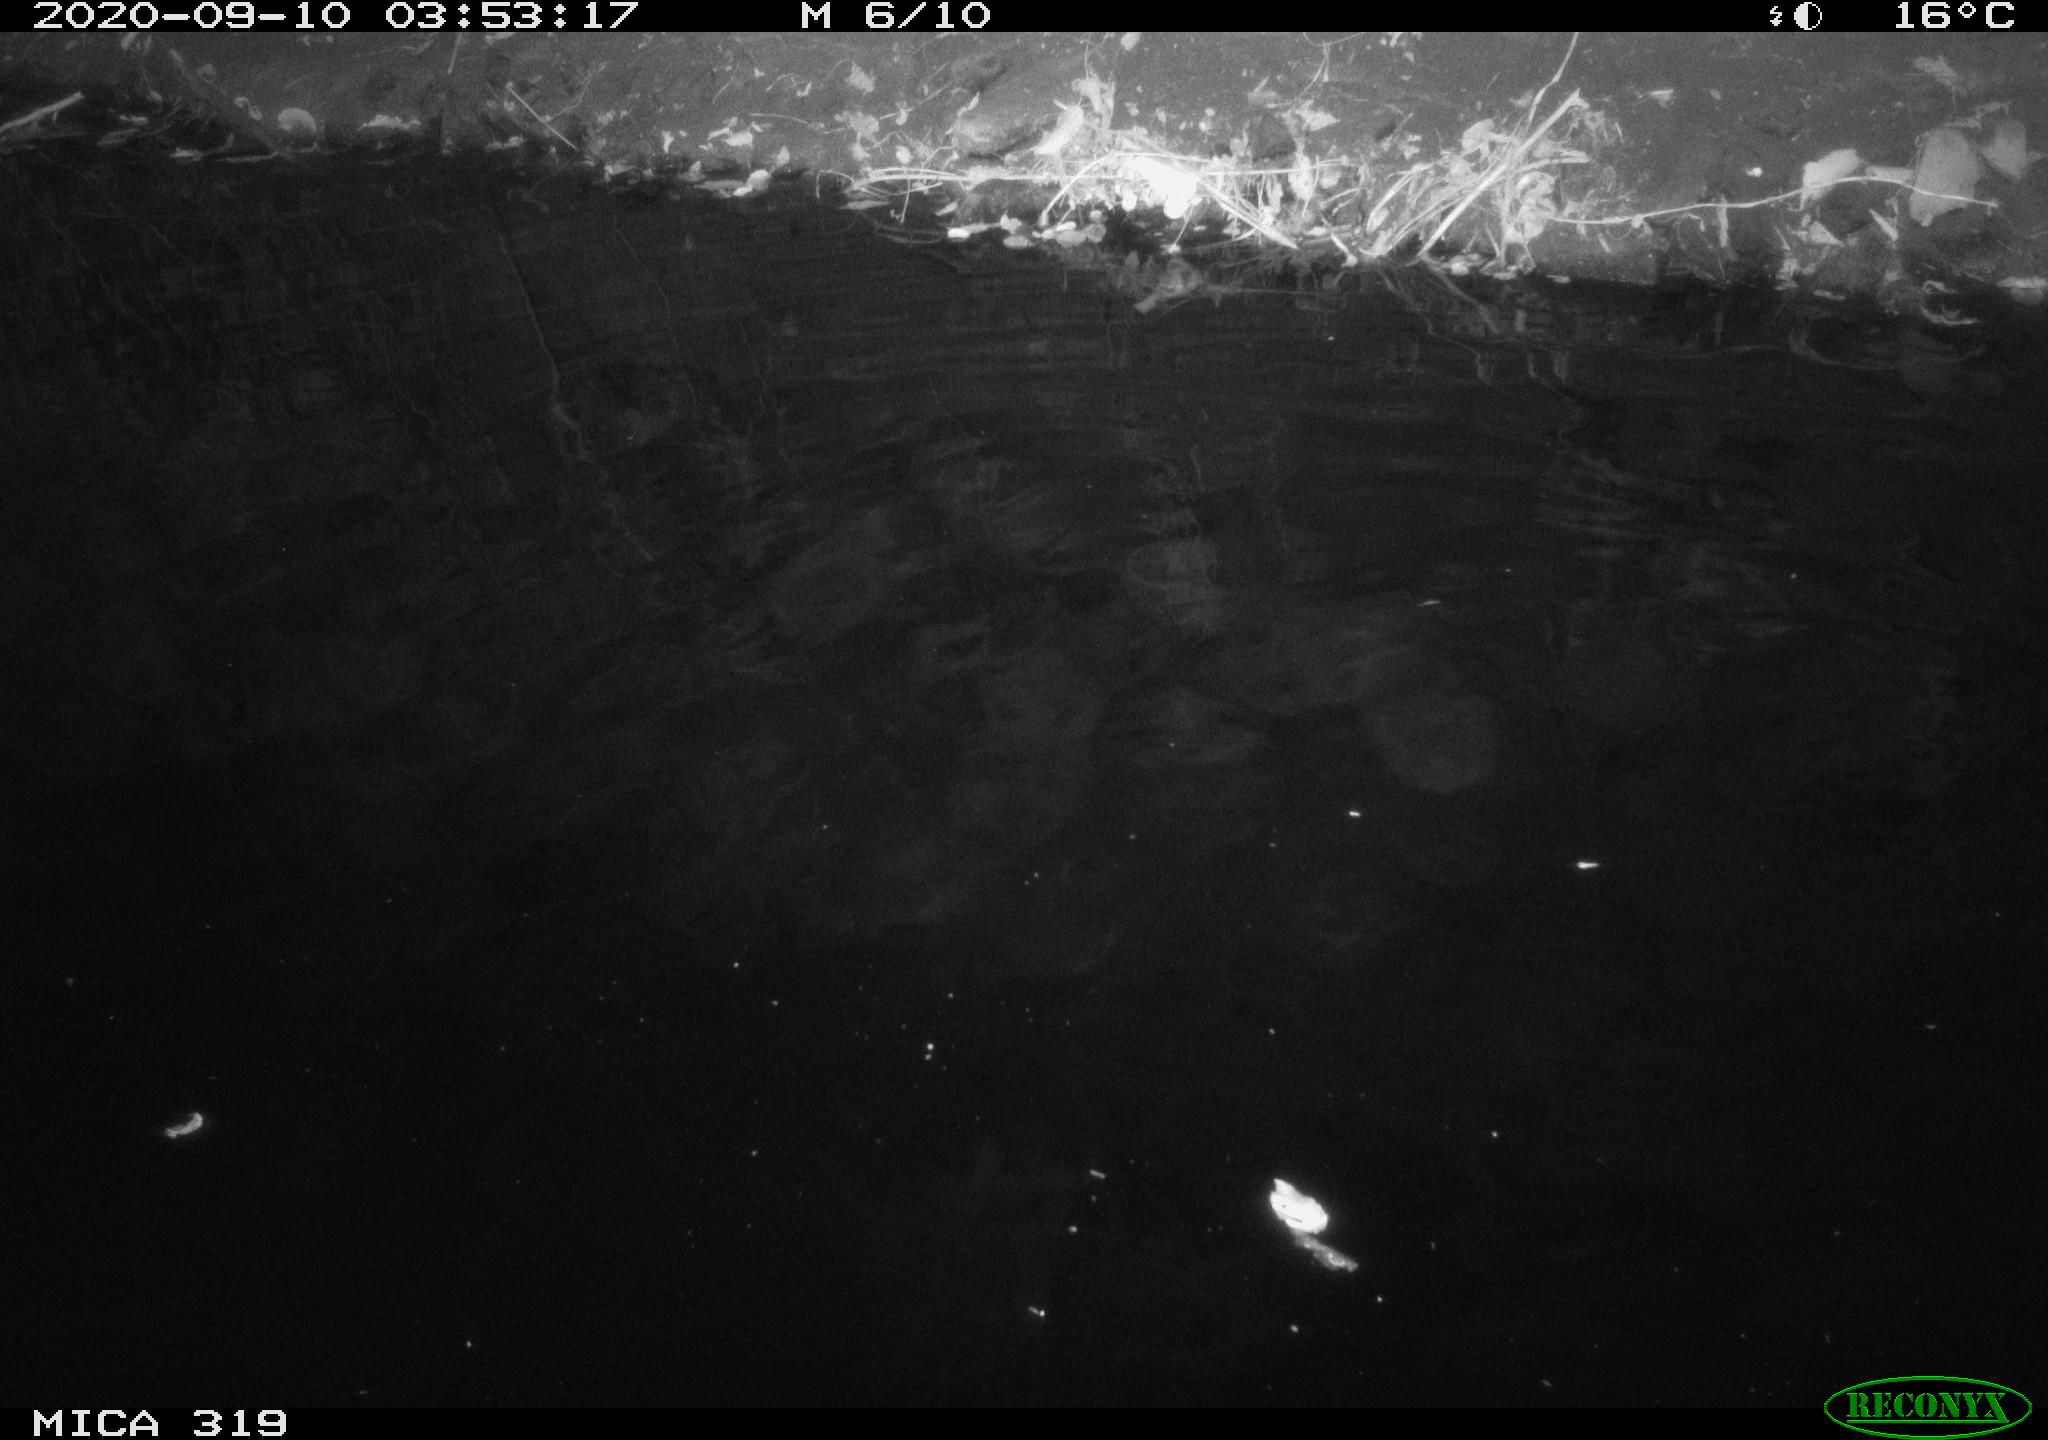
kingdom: Animalia
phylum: Chordata
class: Aves
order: Anseriformes
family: Anatidae
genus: Anas
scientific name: Anas platyrhynchos
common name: Mallard
